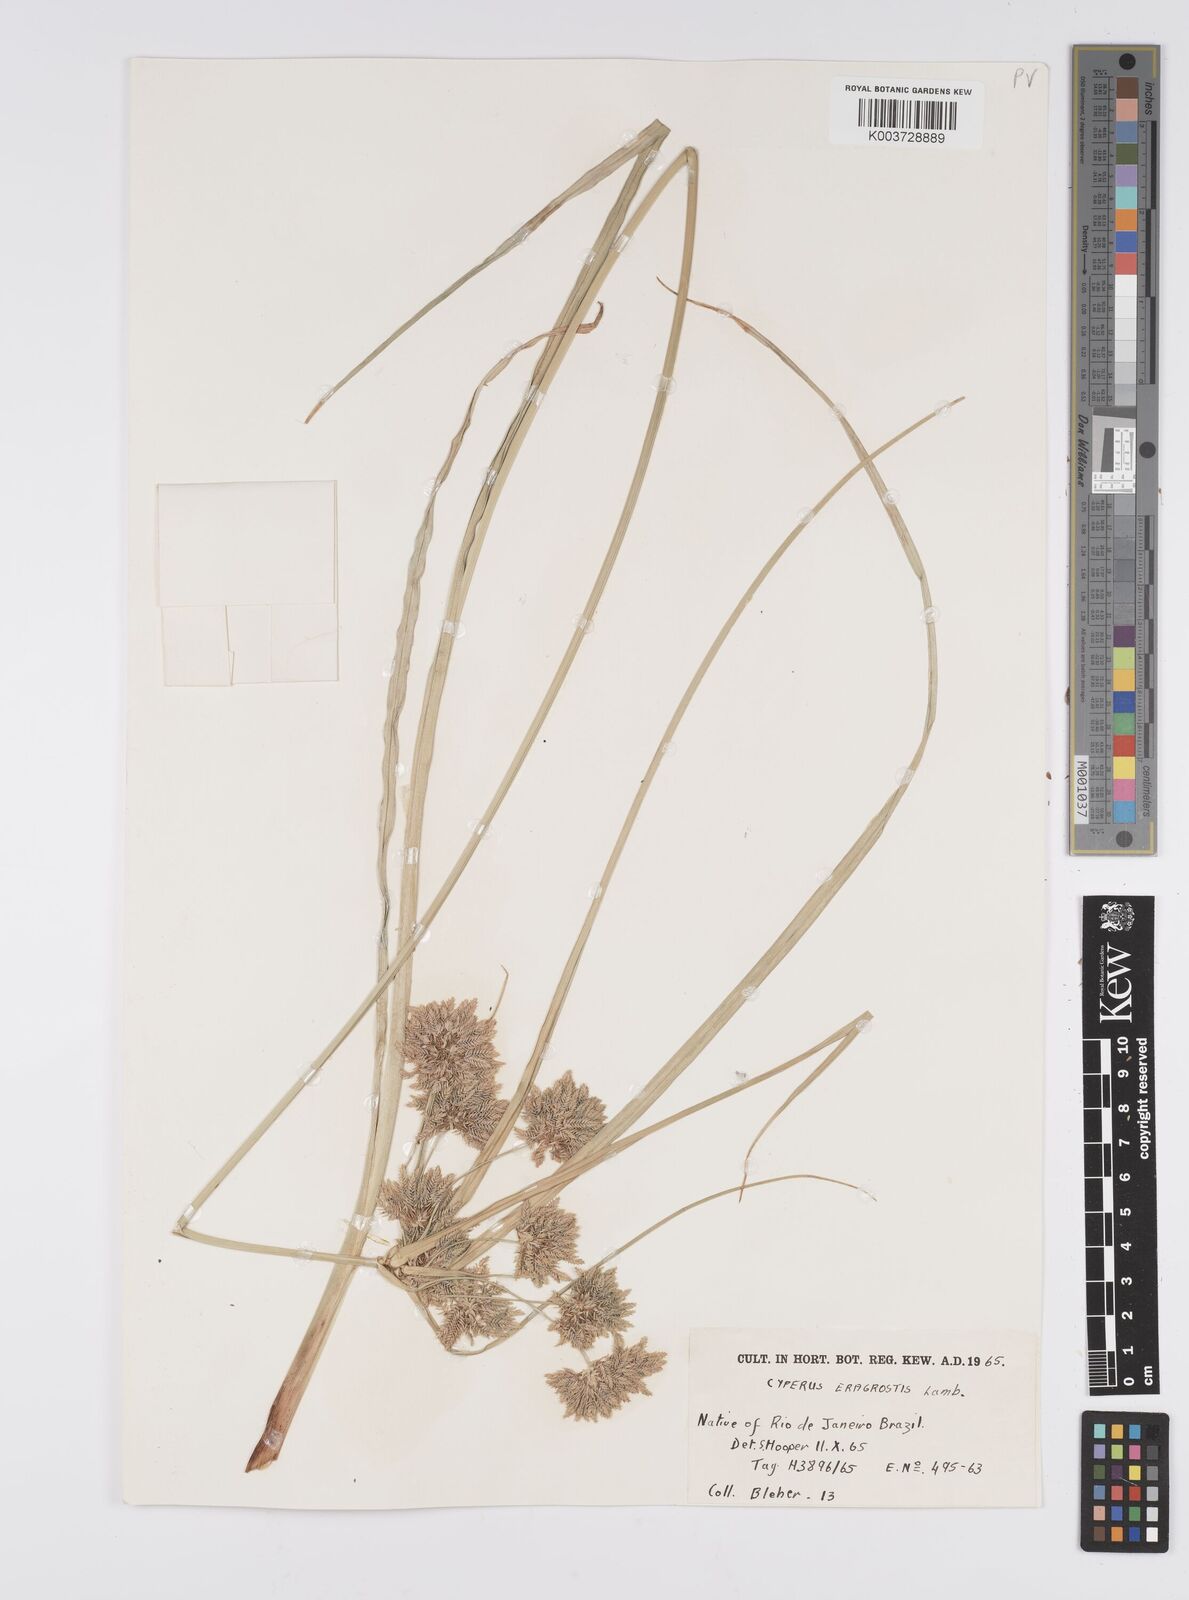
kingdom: Plantae
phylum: Tracheophyta
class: Liliopsida
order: Poales
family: Cyperaceae
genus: Cyperus
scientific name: Cyperus eragrostis
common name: Tall flatsedge
